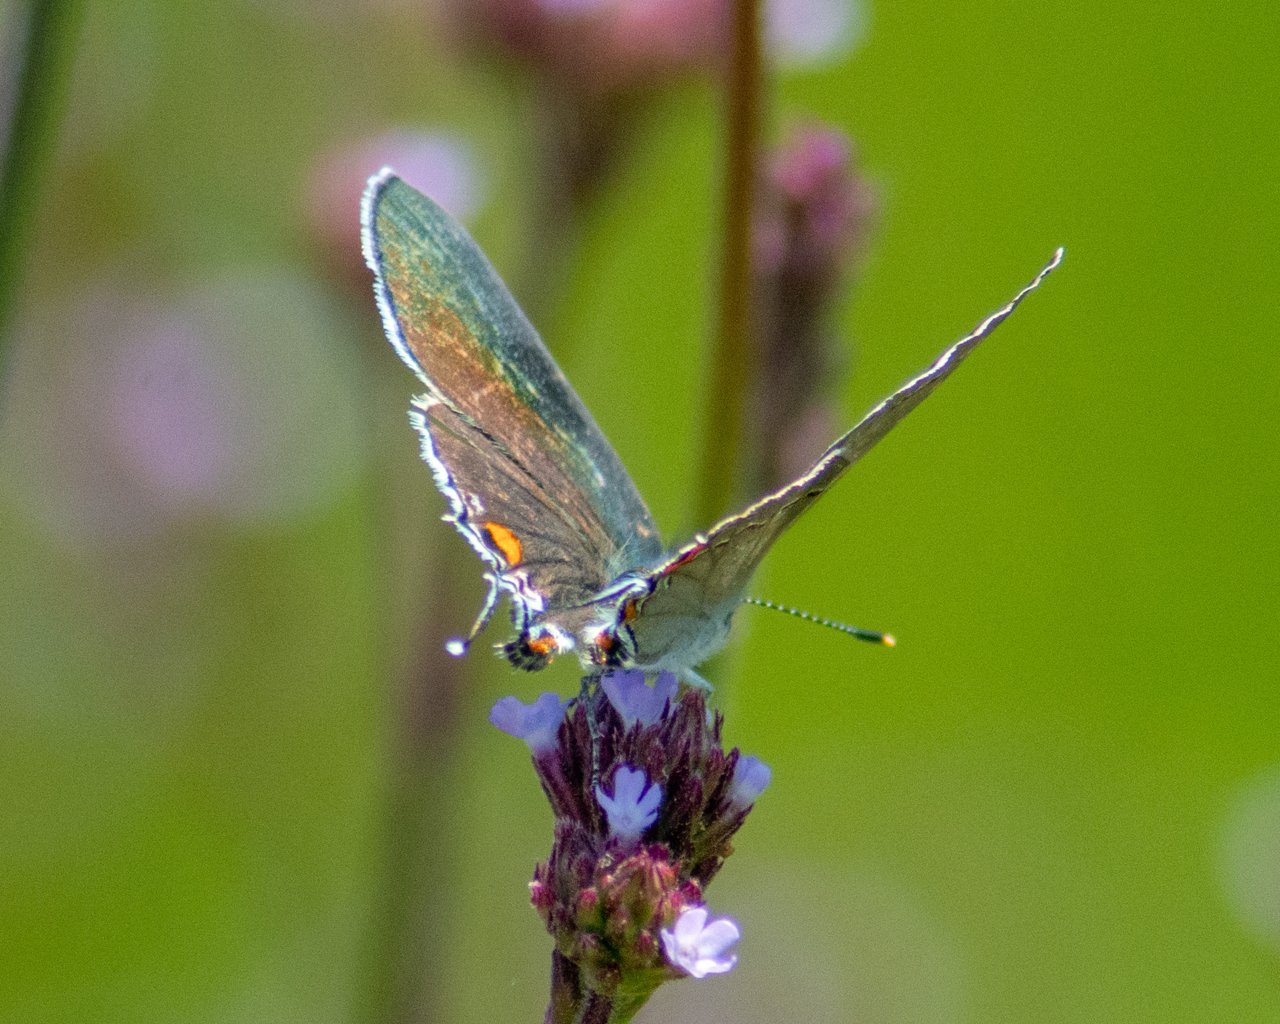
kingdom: Animalia
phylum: Arthropoda
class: Insecta
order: Lepidoptera
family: Lycaenidae
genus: Strymon
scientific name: Strymon melinus
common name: Gray Hairstreak
